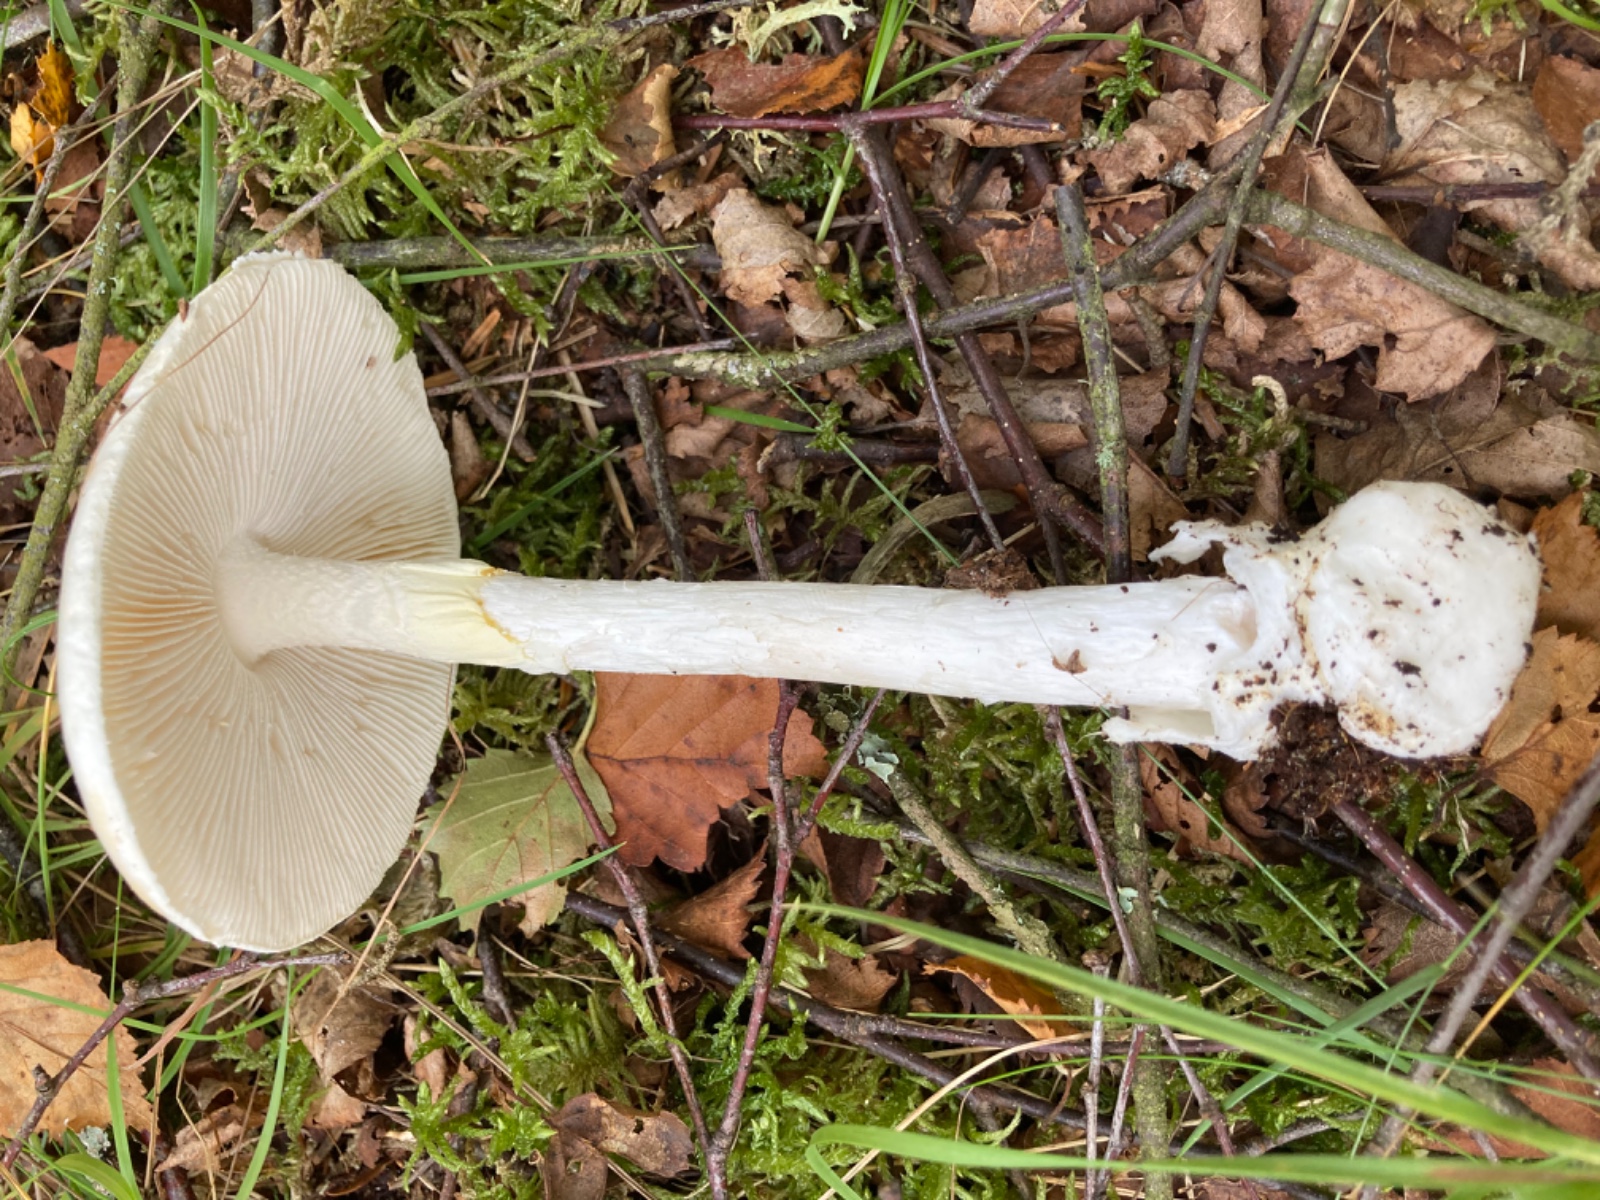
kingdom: Fungi
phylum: Basidiomycota
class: Agaricomycetes
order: Agaricales
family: Amanitaceae
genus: Amanita
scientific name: Amanita virosa
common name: snehvid fluesvamp
